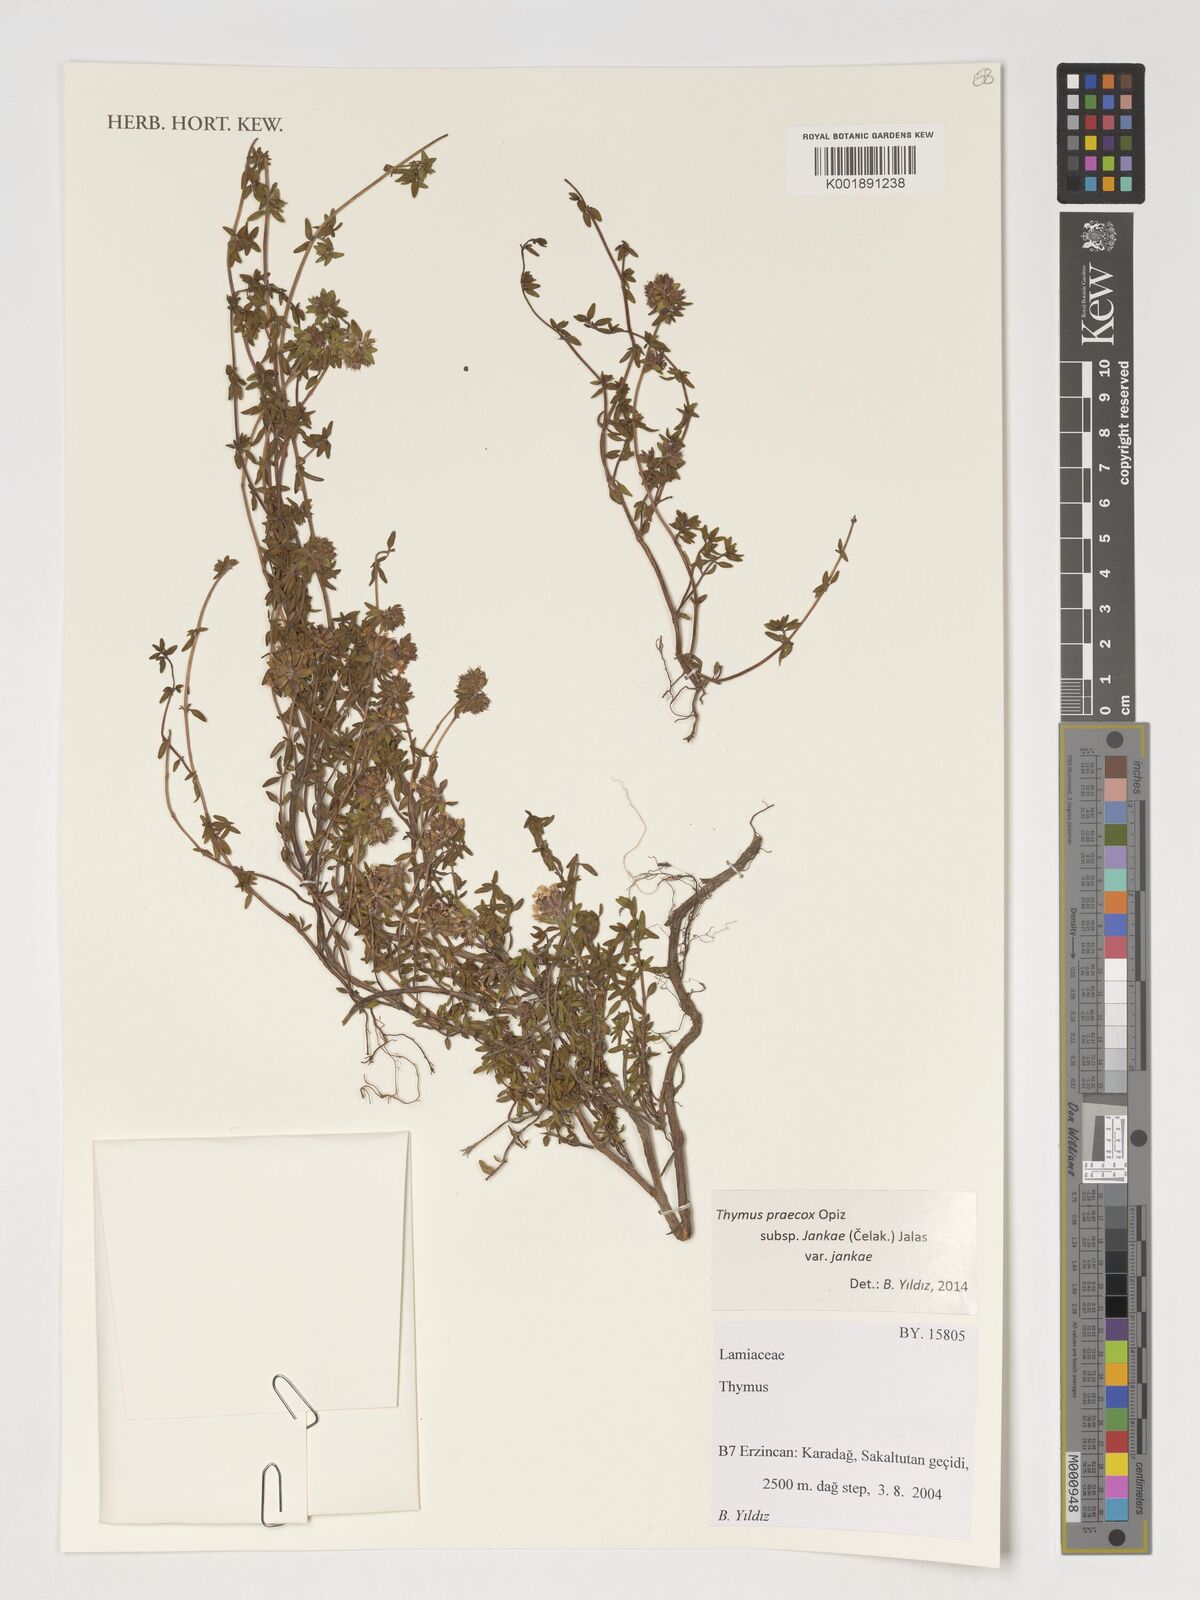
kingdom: Plantae
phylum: Tracheophyta
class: Magnoliopsida
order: Lamiales
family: Lamiaceae
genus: Thymus
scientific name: Thymus
